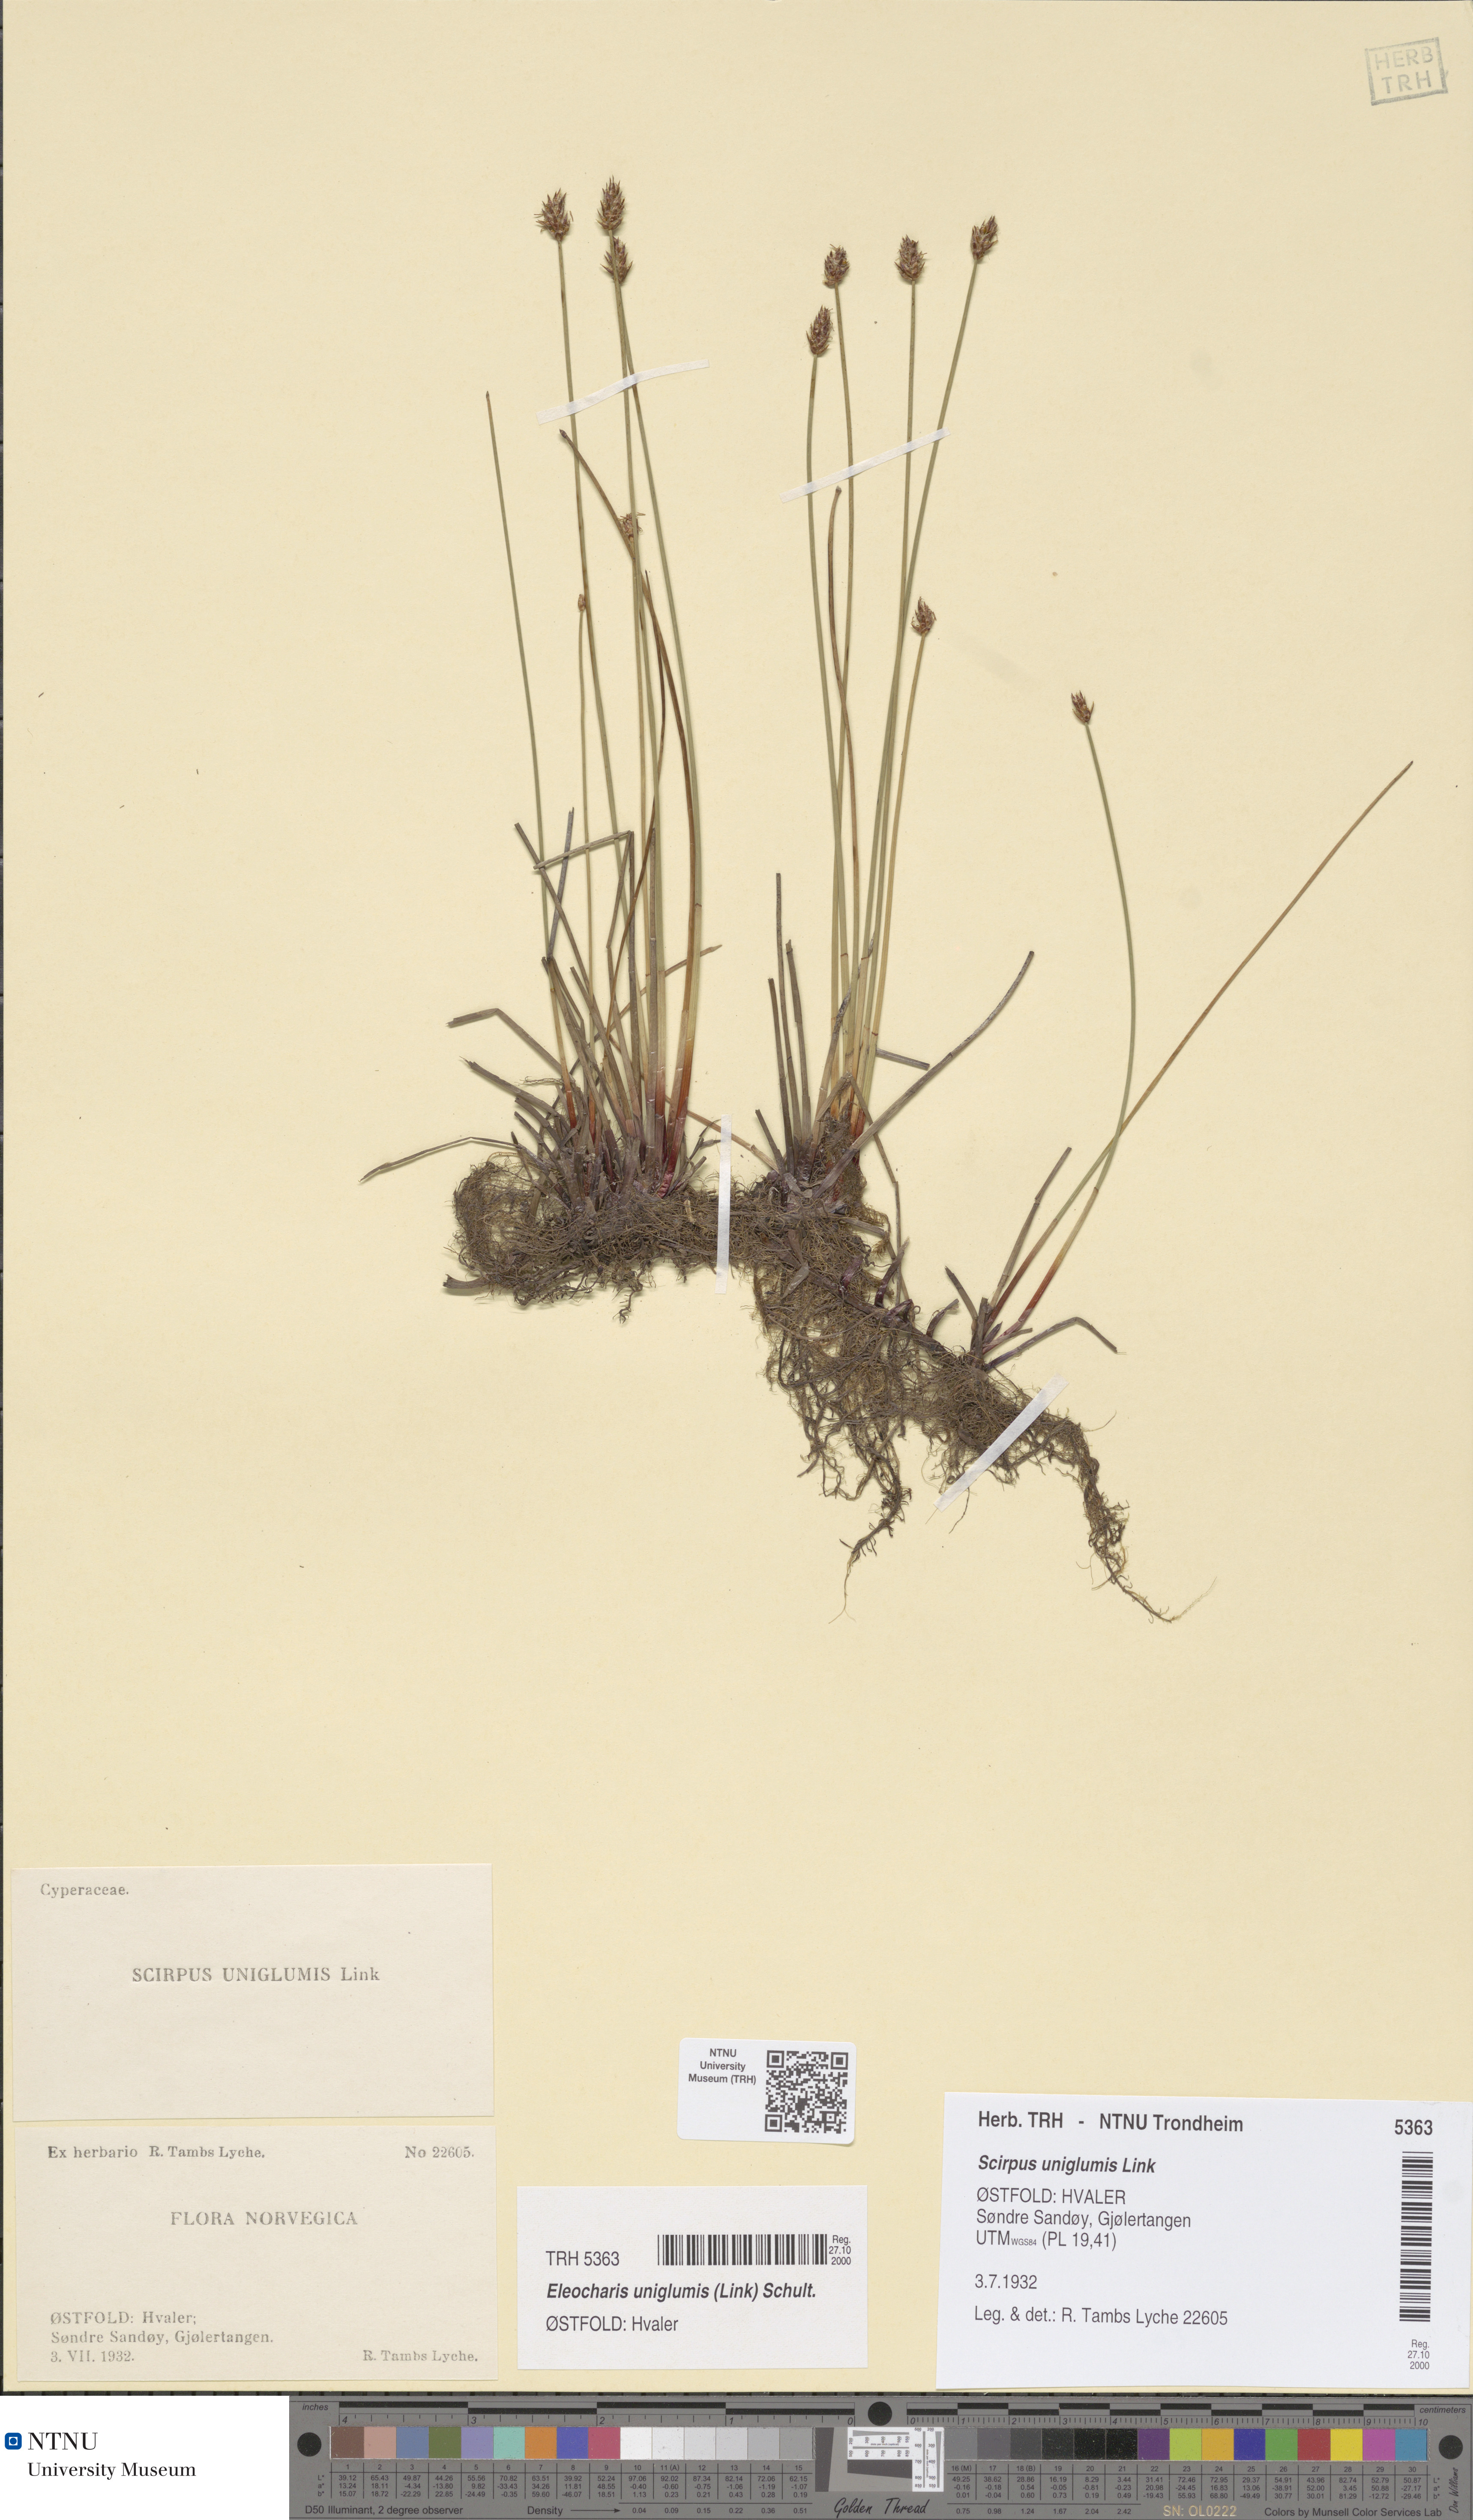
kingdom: Plantae
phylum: Tracheophyta
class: Liliopsida
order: Poales
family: Cyperaceae
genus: Eleocharis
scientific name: Eleocharis uniglumis
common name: Slender spike-rush
